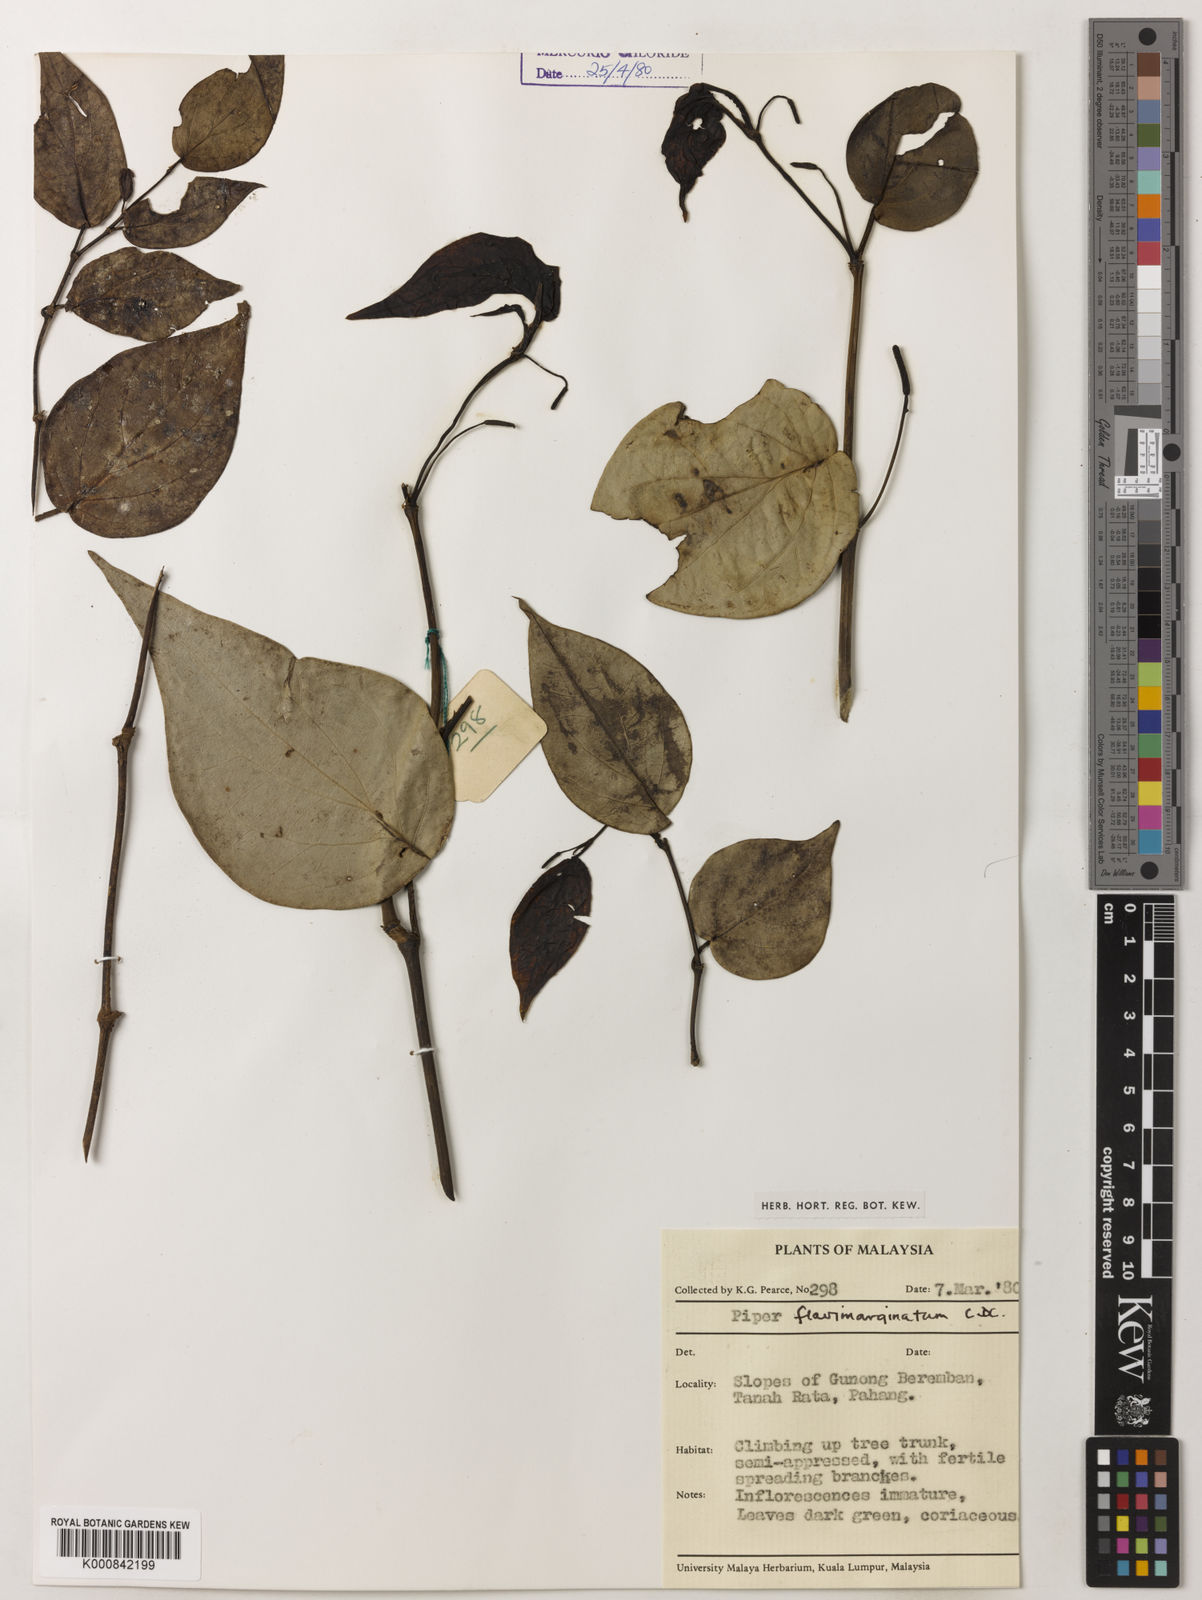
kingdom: Plantae
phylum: Tracheophyta
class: Magnoliopsida
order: Piperales
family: Piperaceae
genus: Piper
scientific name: Piper flavimarginatum
